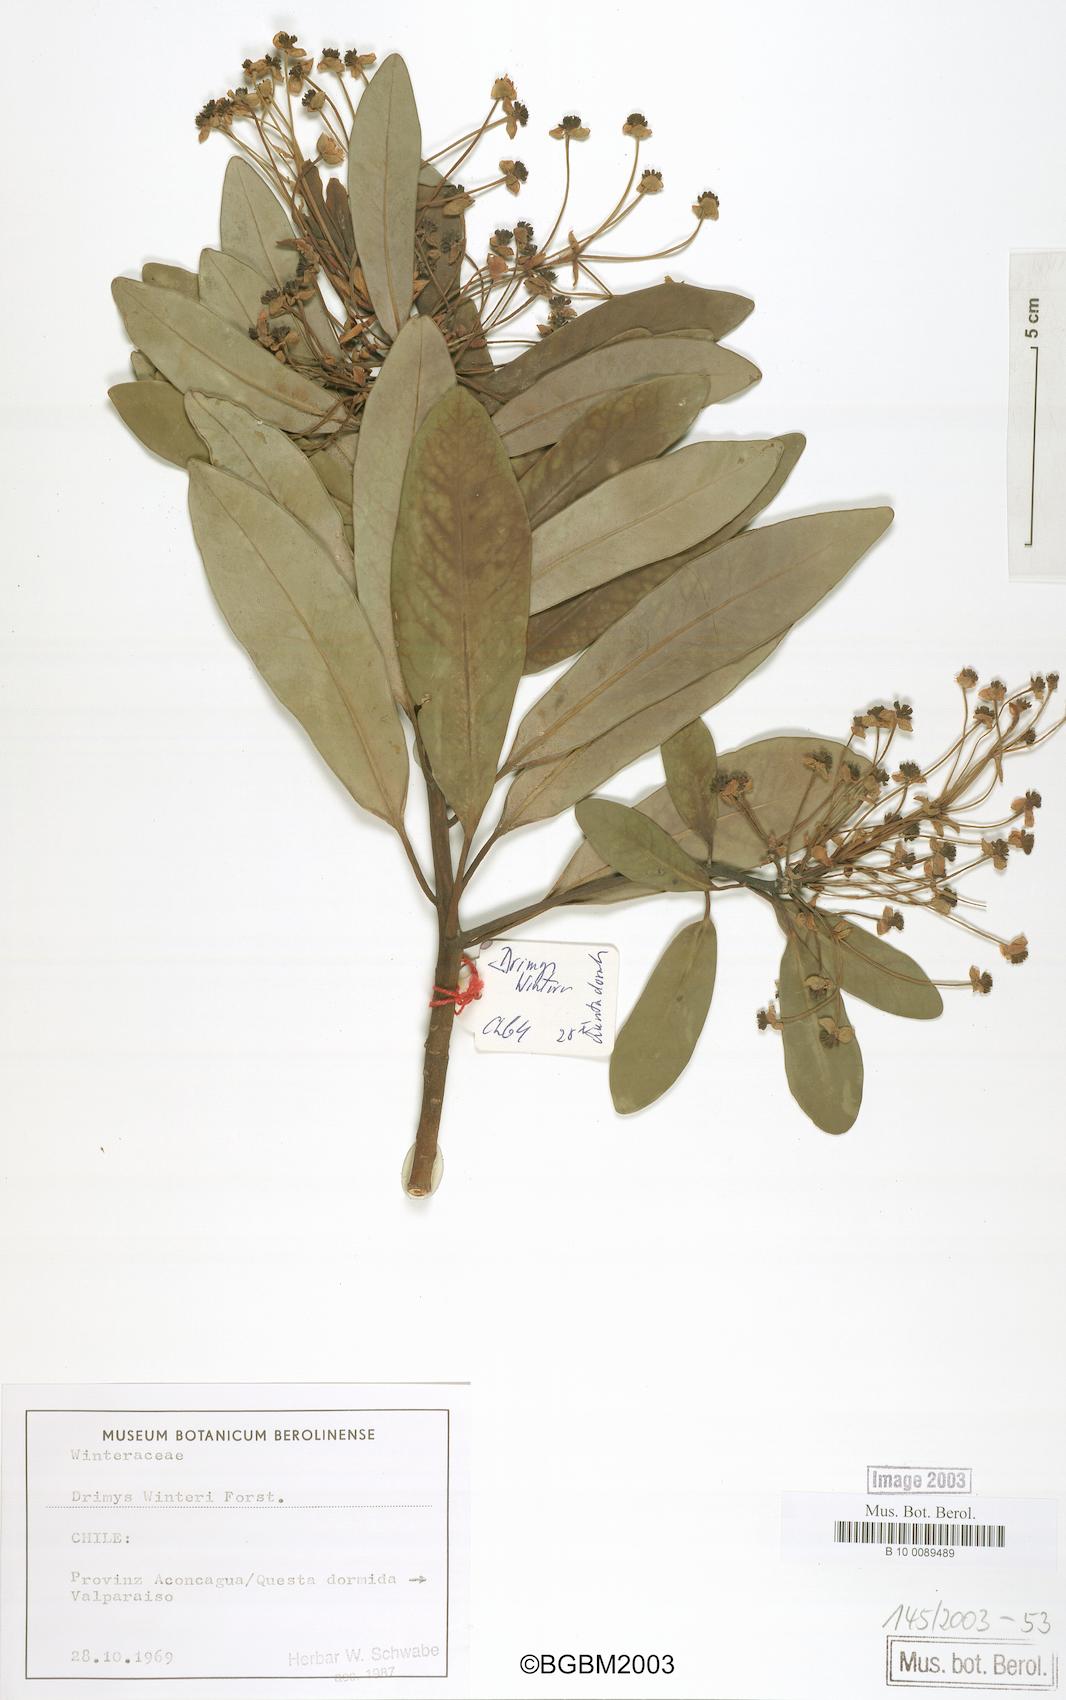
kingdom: Plantae
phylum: Tracheophyta
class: Magnoliopsida
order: Canellales
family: Winteraceae
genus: Drimys
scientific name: Drimys winteri
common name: Winter's-bark
